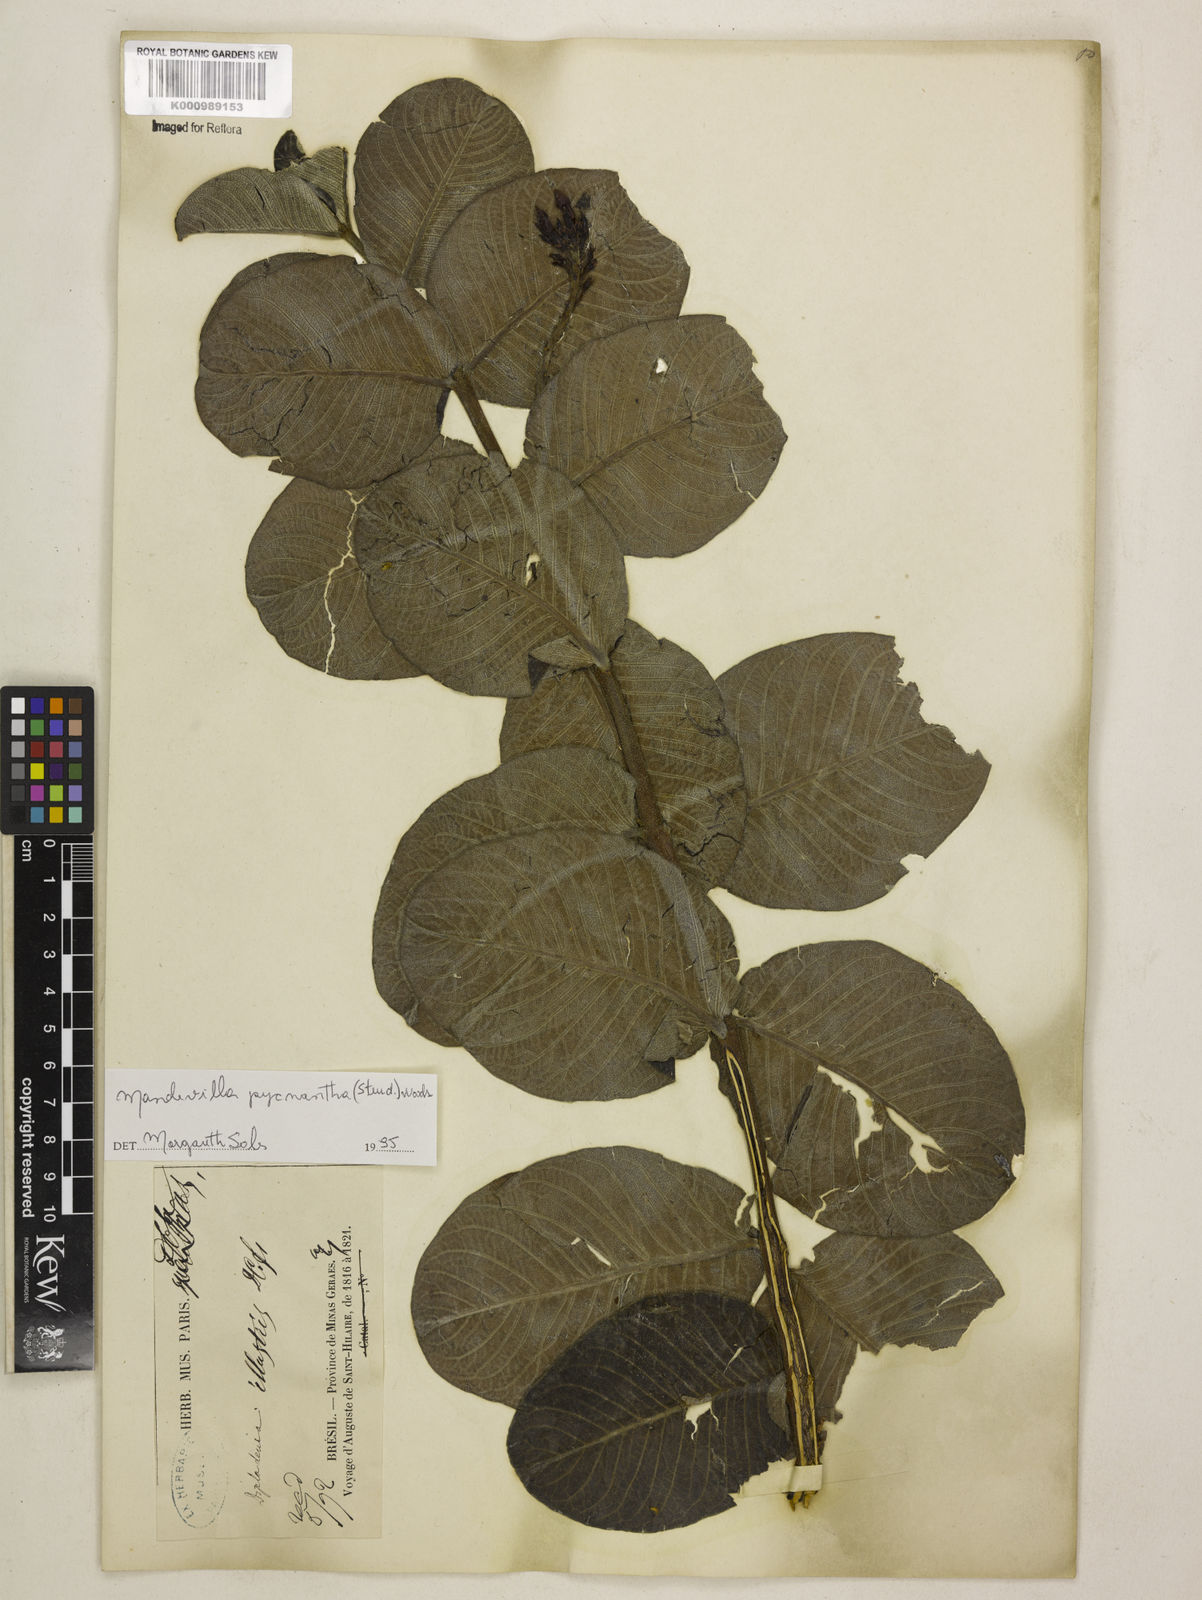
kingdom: Plantae
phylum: Tracheophyta
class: Magnoliopsida
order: Gentianales
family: Apocynaceae
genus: Mandevilla
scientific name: Mandevilla illustris
